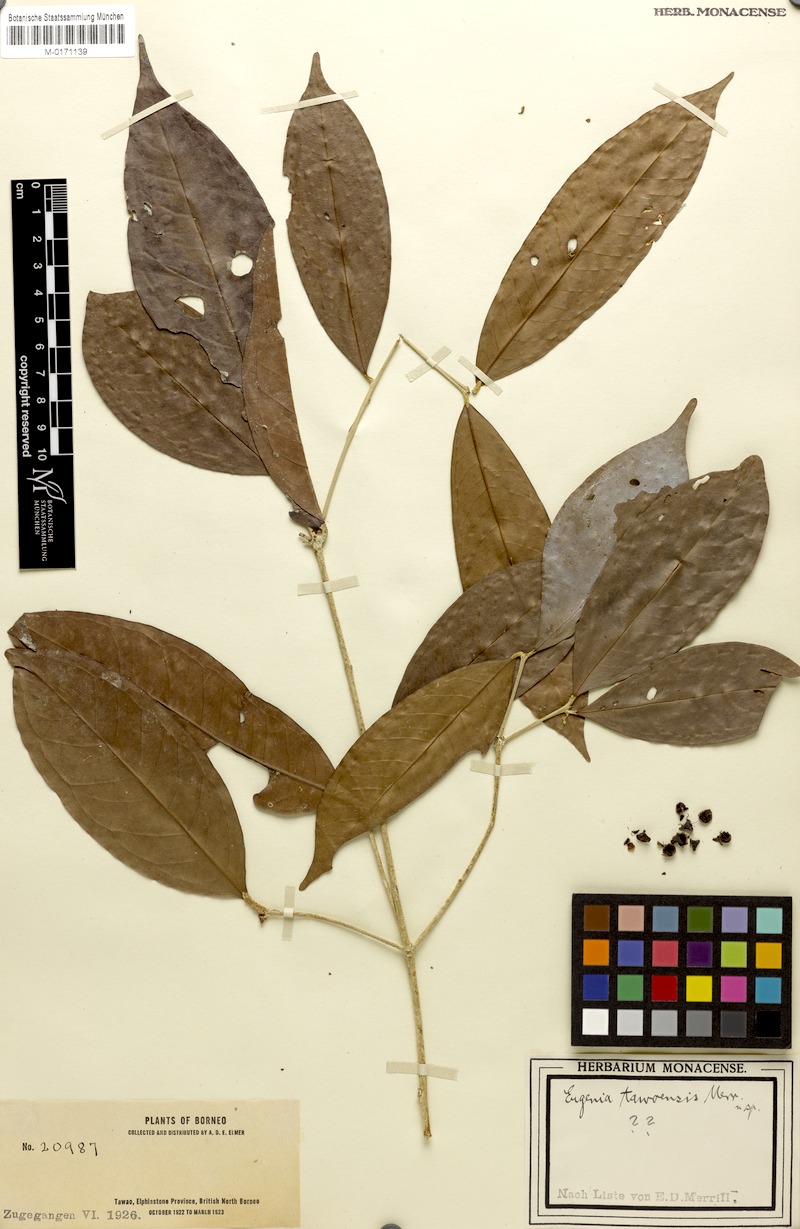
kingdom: Plantae
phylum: Tracheophyta
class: Magnoliopsida
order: Myrtales
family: Myrtaceae
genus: Syzygium
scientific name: Syzygium peregrinum
